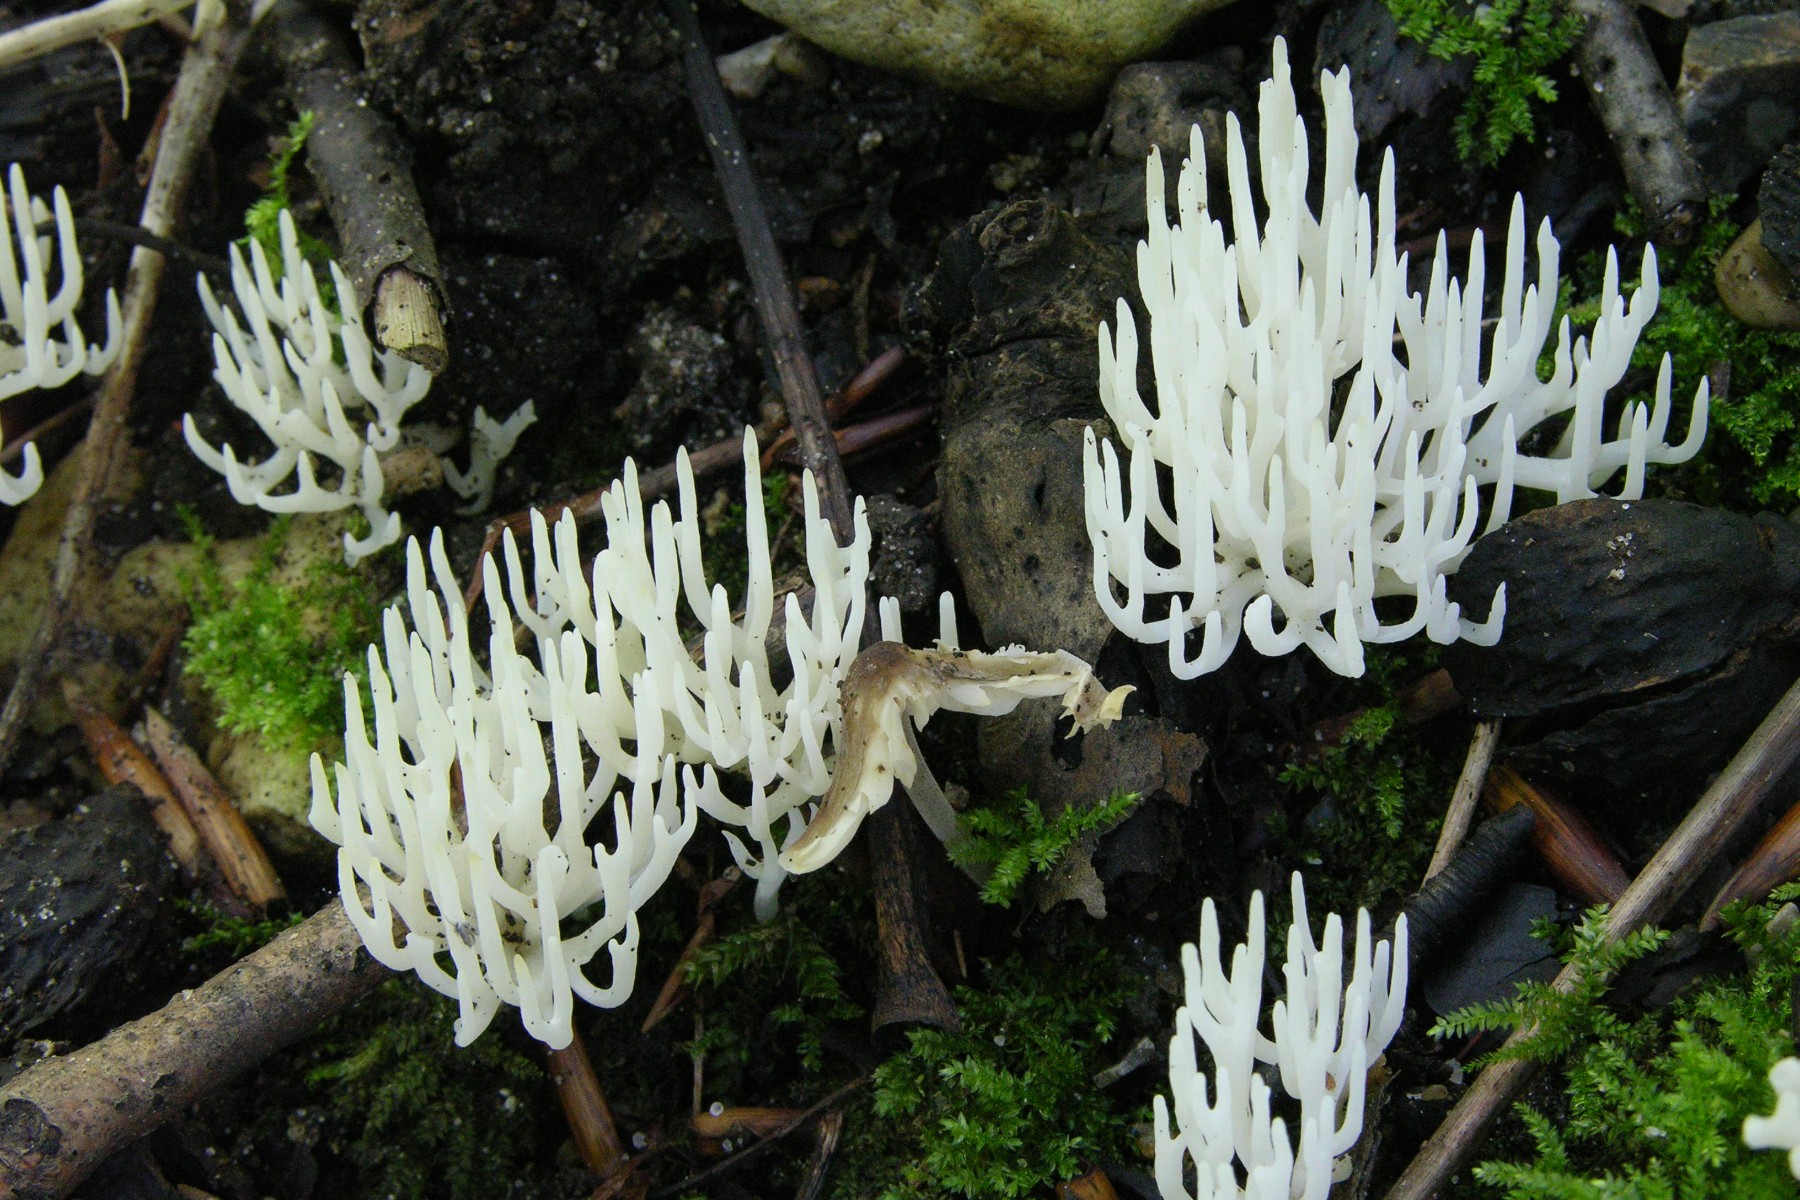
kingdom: Fungi
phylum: Basidiomycota
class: Agaricomycetes
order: Agaricales
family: Clavariaceae
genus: Ramariopsis
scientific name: Ramariopsis kunzei
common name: mangegrenet køllesvamp
